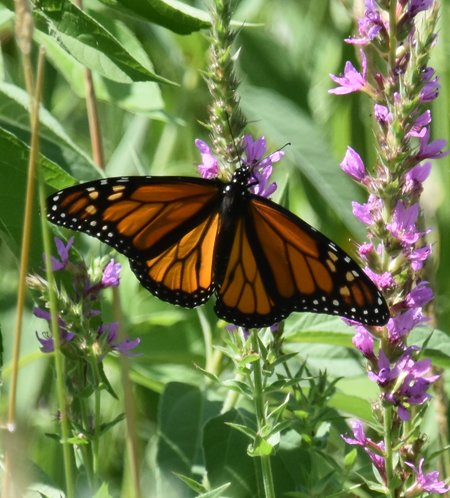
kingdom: Animalia
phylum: Arthropoda
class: Insecta
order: Lepidoptera
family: Nymphalidae
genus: Danaus
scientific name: Danaus plexippus
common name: Monarch
